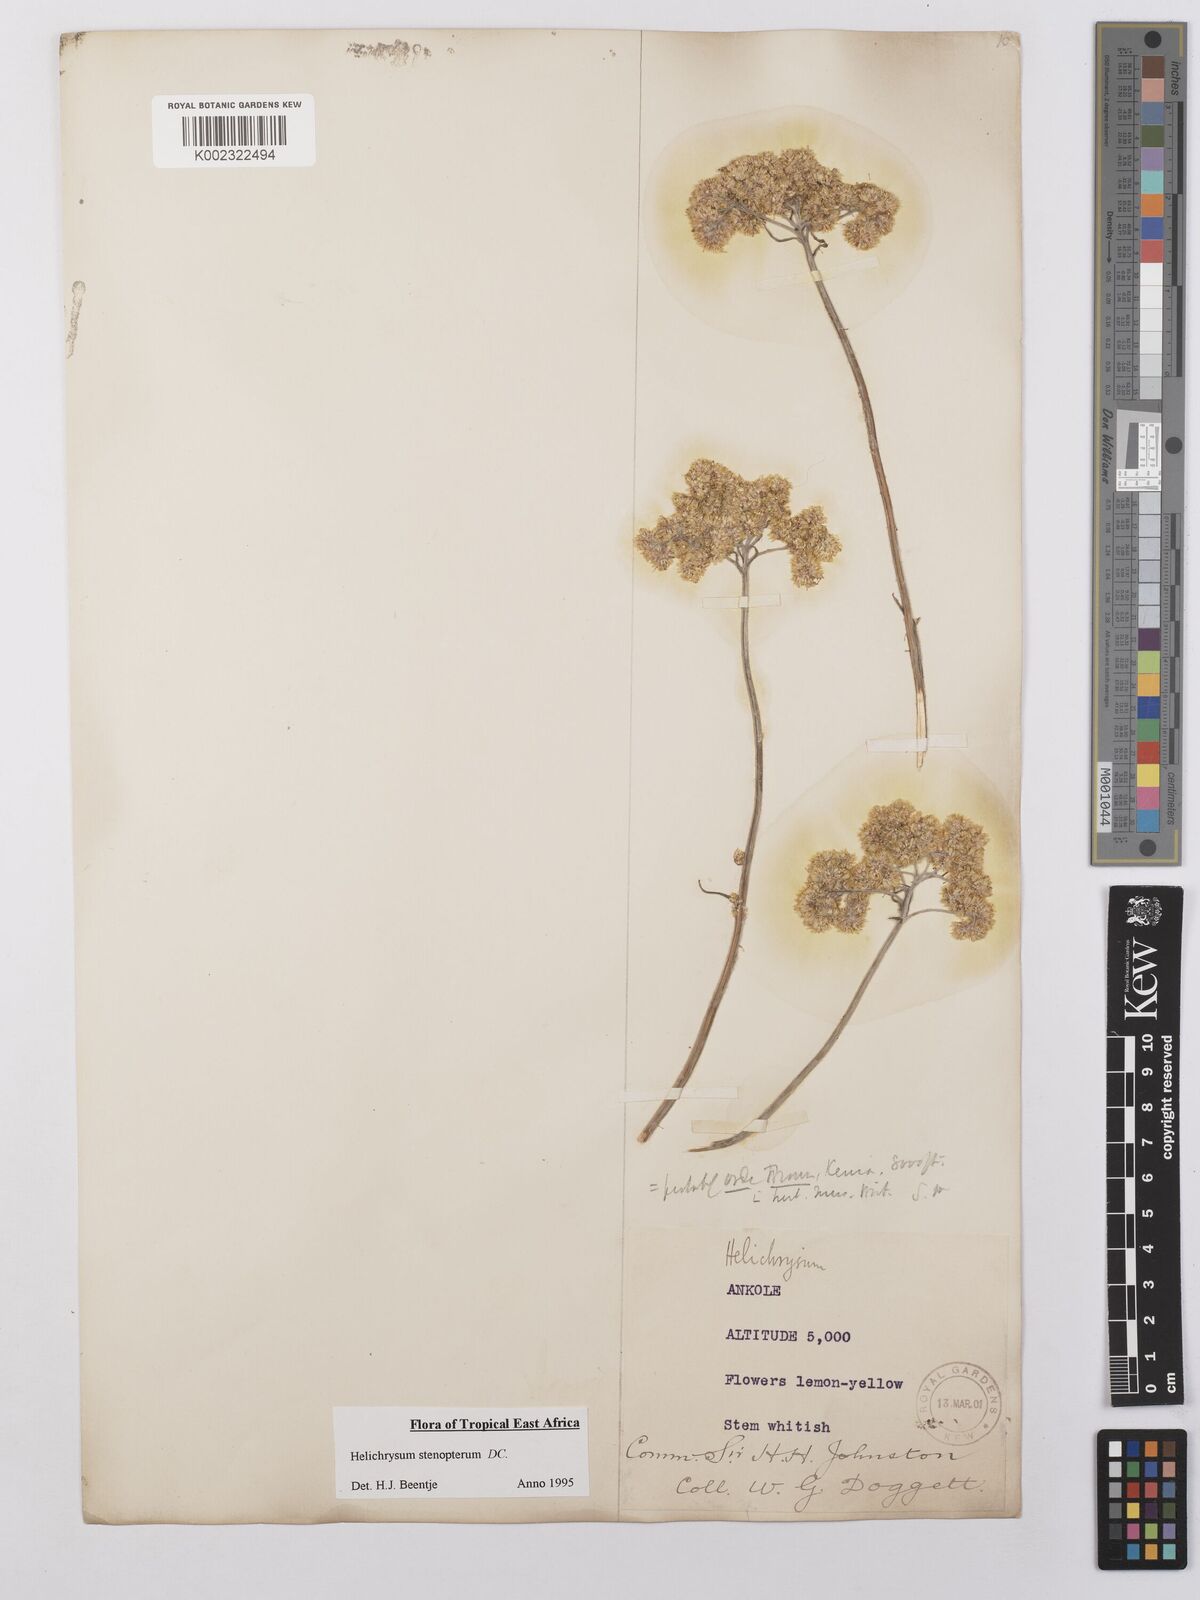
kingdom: Plantae
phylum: Tracheophyta
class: Magnoliopsida
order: Asterales
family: Asteraceae
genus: Helichrysum
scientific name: Helichrysum stenopterum
